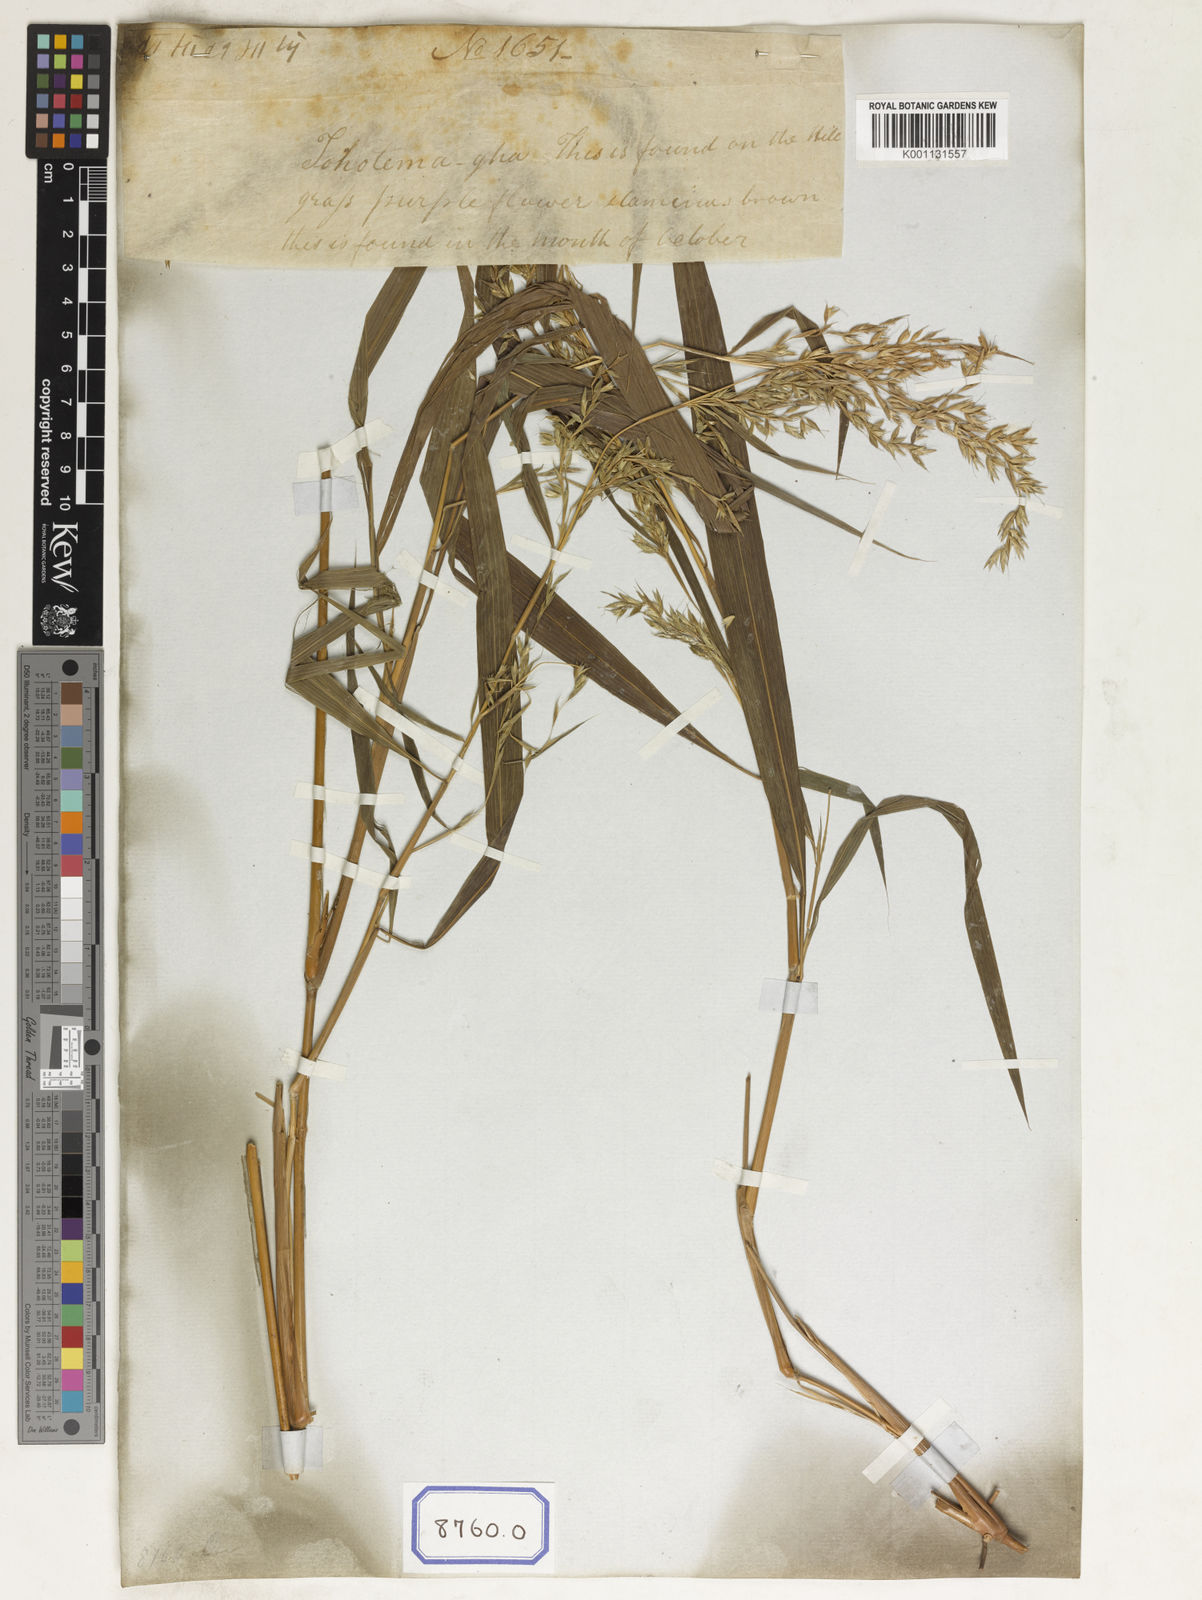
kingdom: Plantae
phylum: Tracheophyta
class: Liliopsida
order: Poales
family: Poaceae
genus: Apluda
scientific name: Apluda
